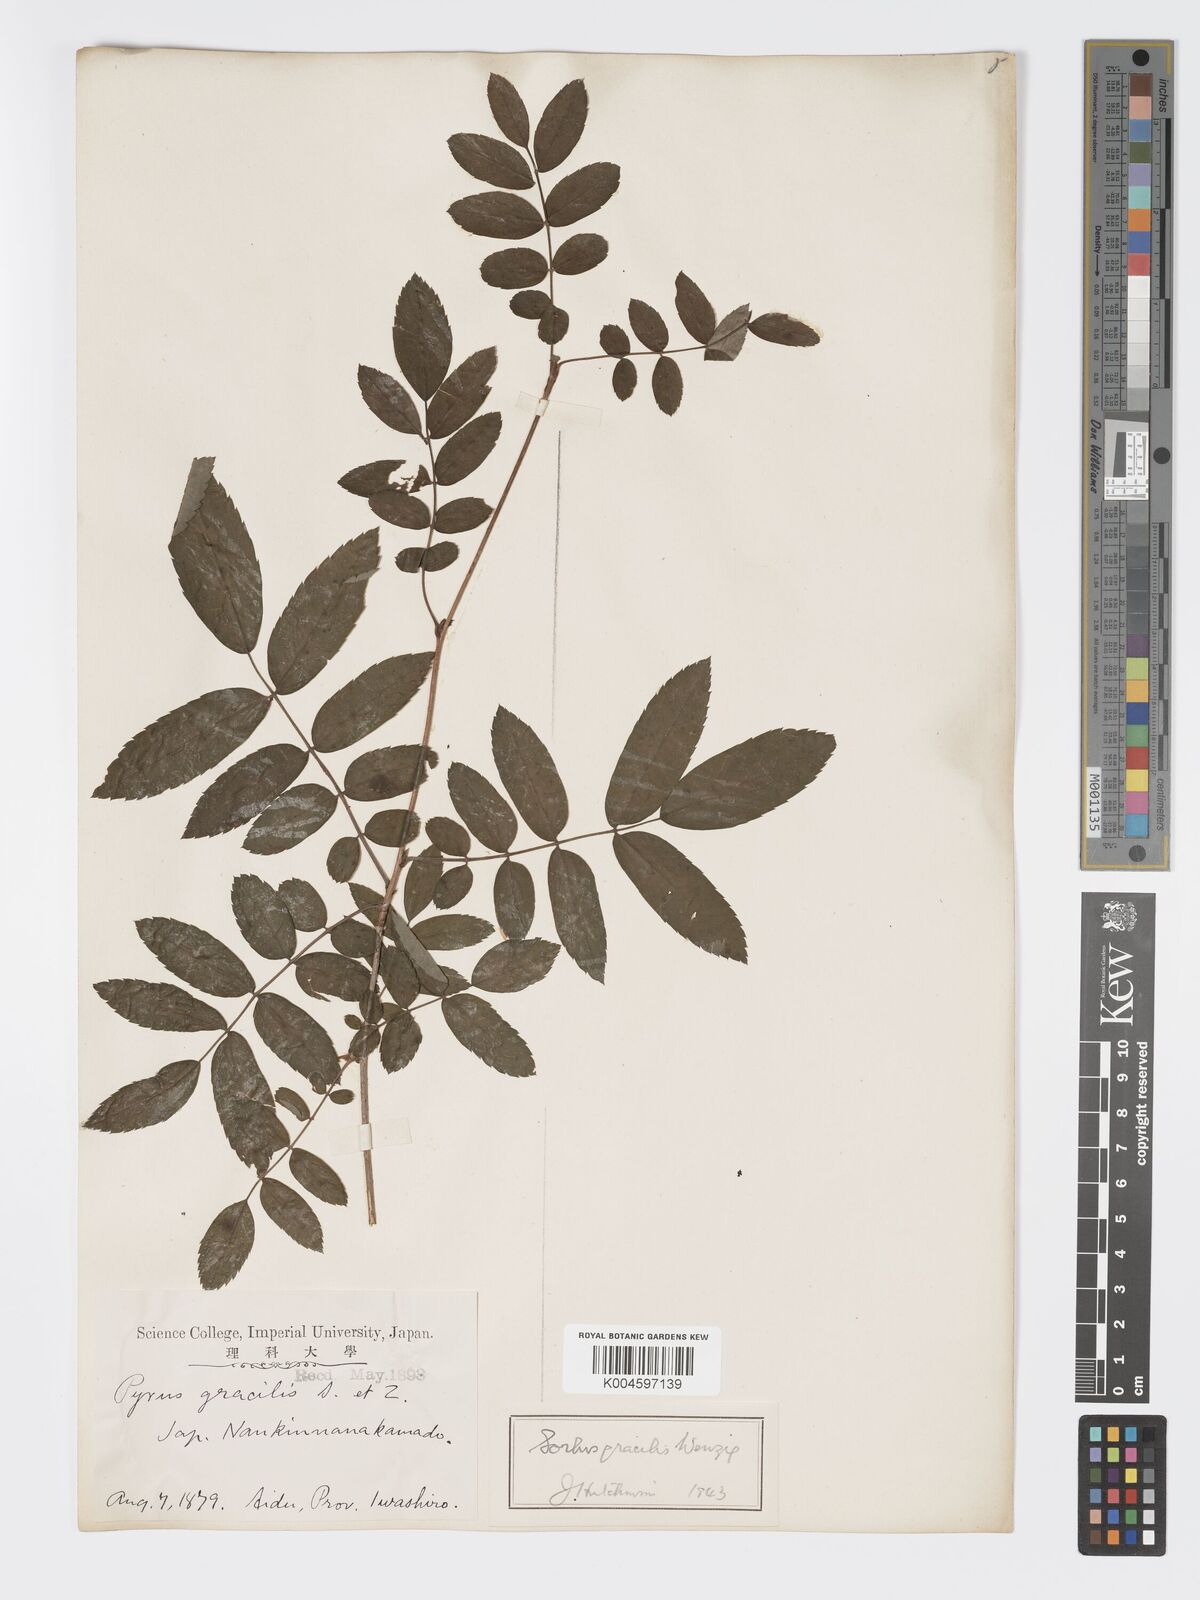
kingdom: Plantae
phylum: Tracheophyta
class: Magnoliopsida
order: Rosales
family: Rosaceae
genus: Sorbus
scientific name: Sorbus gracilis
